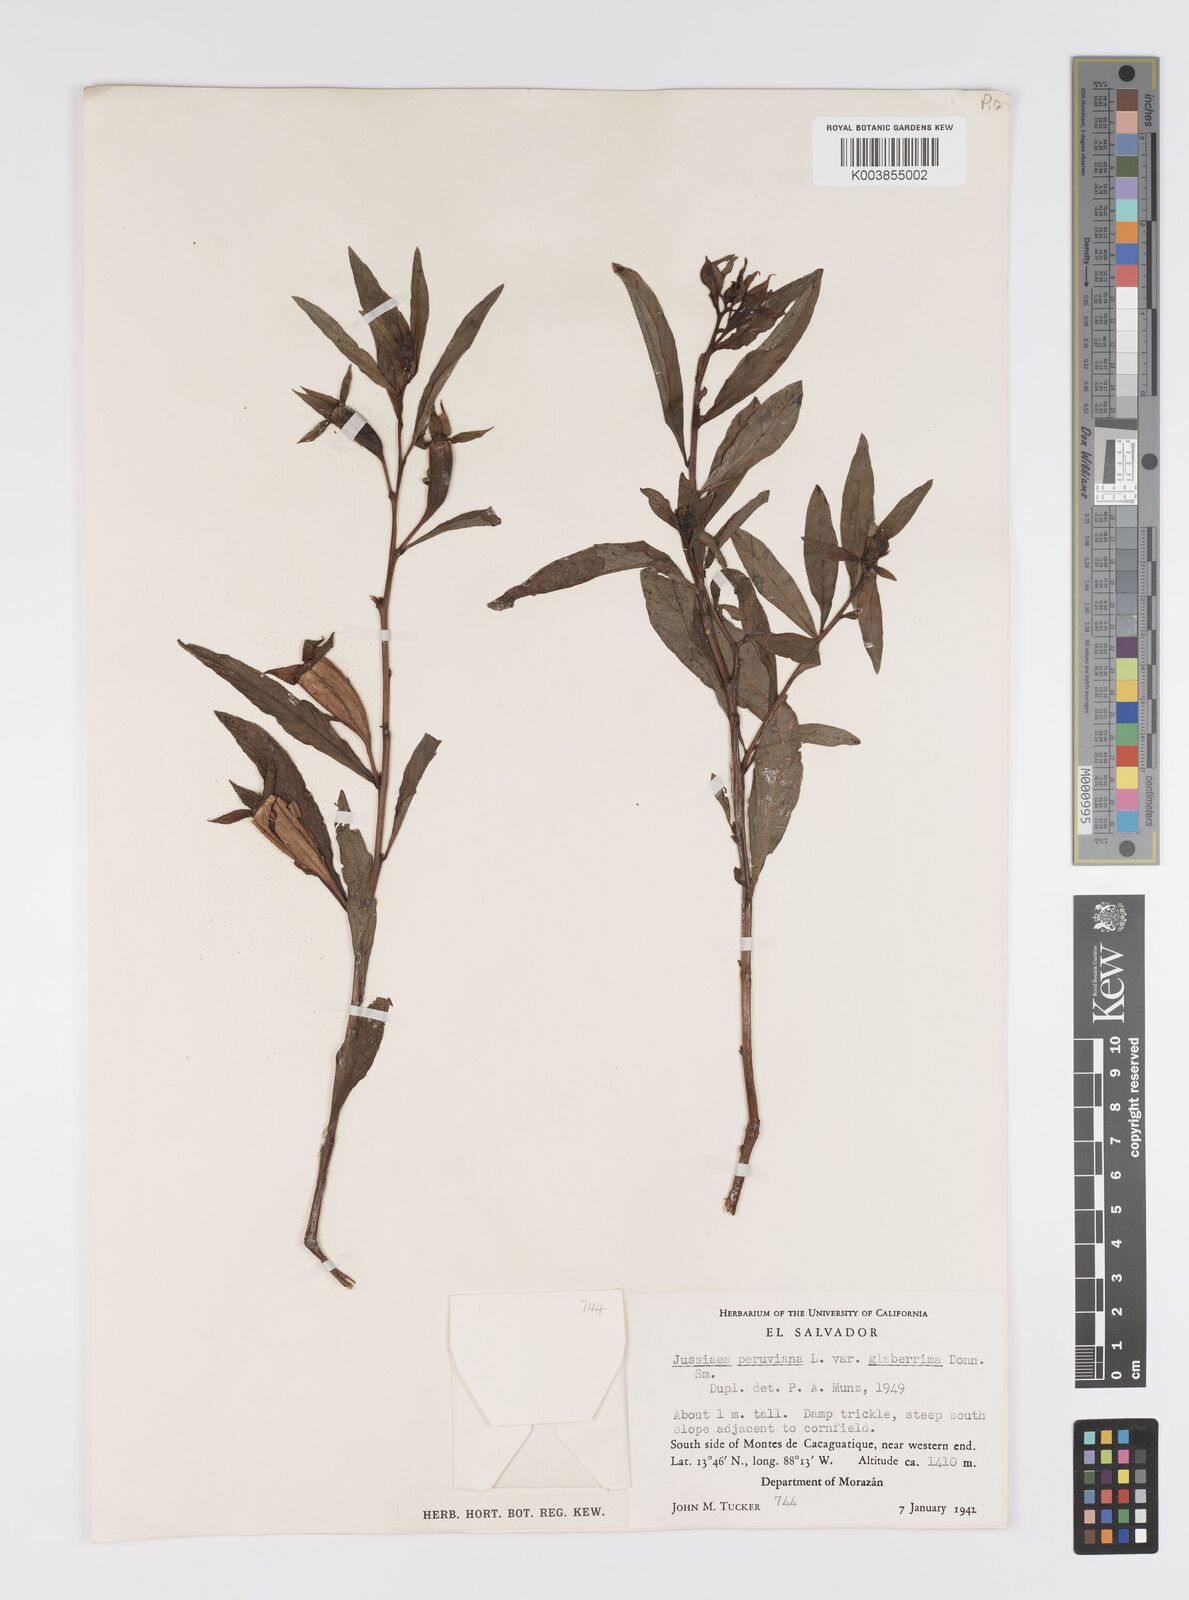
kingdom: Plantae
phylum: Tracheophyta
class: Magnoliopsida
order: Myrtales
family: Onagraceae
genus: Ludwigia
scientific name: Ludwigia peruviana
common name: Peruvian primrose-willow
